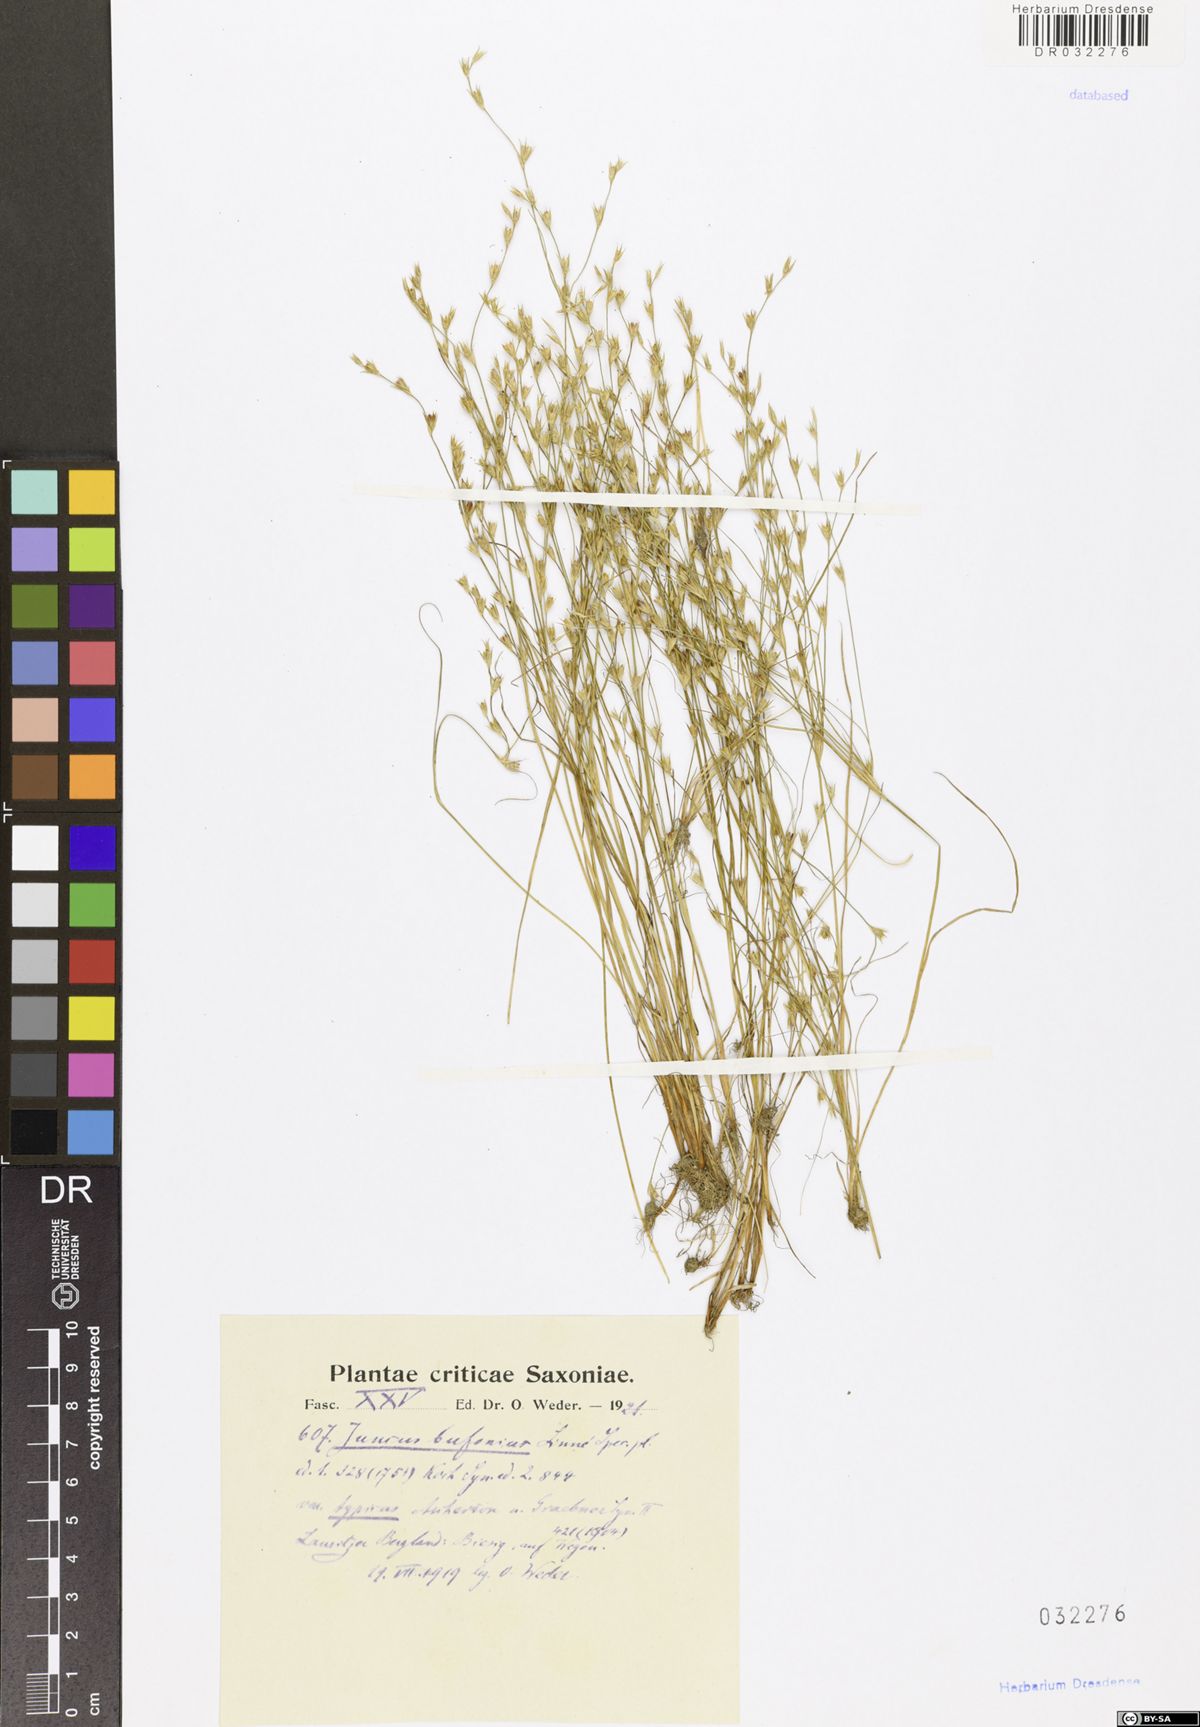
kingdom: Plantae
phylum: Tracheophyta
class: Liliopsida
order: Poales
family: Juncaceae
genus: Juncus
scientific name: Juncus bufonius
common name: Toad rush
